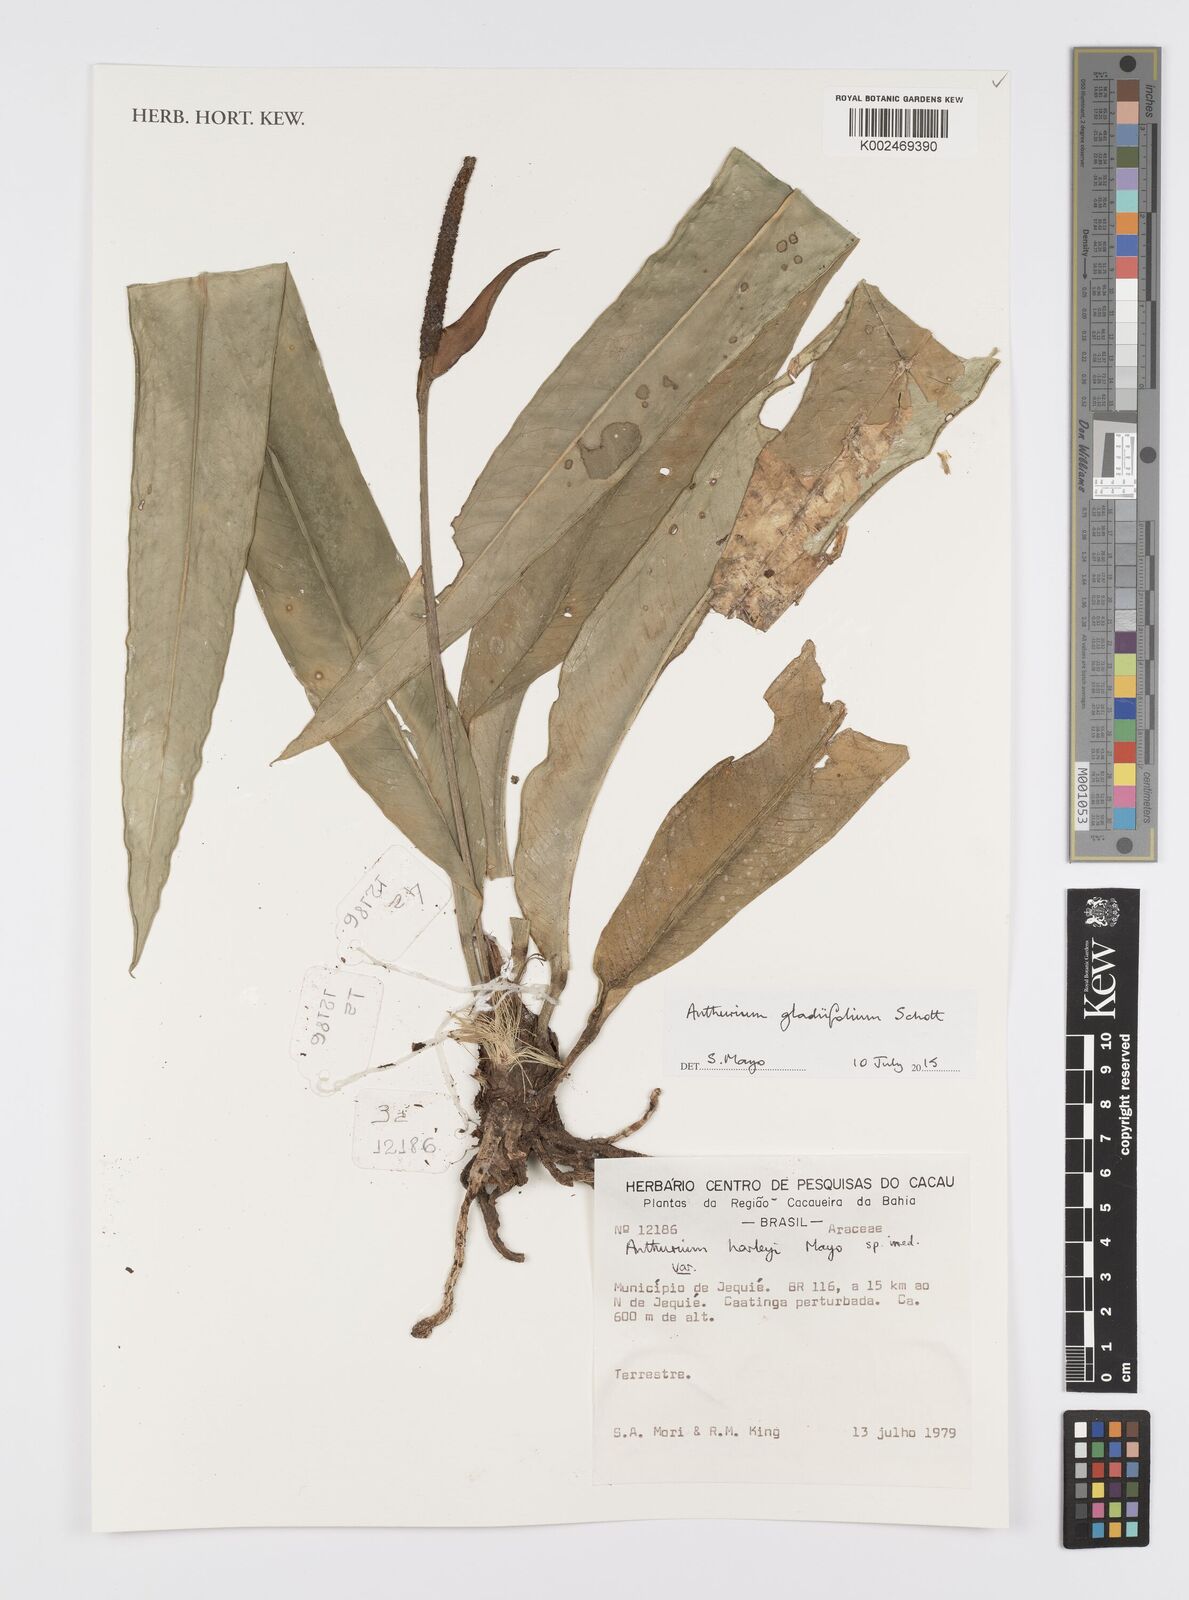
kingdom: Plantae
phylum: Tracheophyta
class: Liliopsida
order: Alismatales
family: Araceae
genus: Anthurium
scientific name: Anthurium gladiifolium
